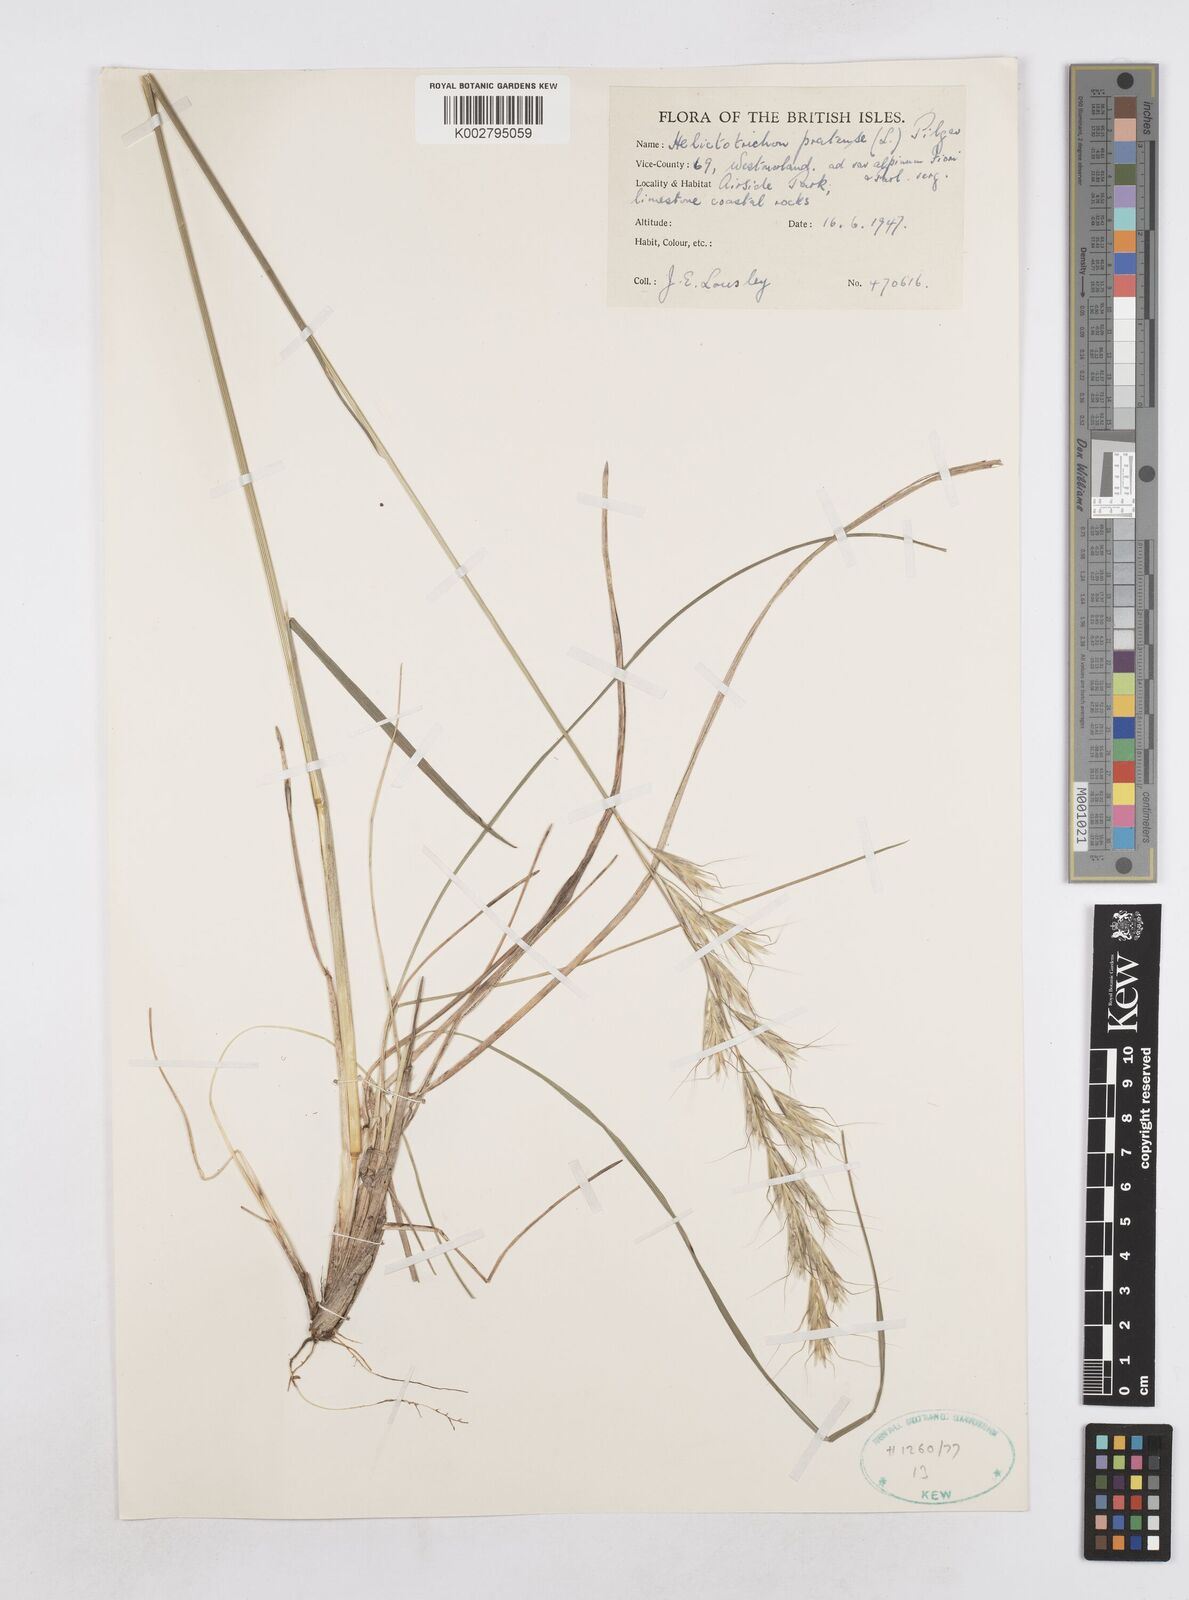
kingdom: Plantae
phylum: Tracheophyta
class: Liliopsida
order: Poales
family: Poaceae
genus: Helictochloa
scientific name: Helictochloa pratensis
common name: Meadow oat grass
